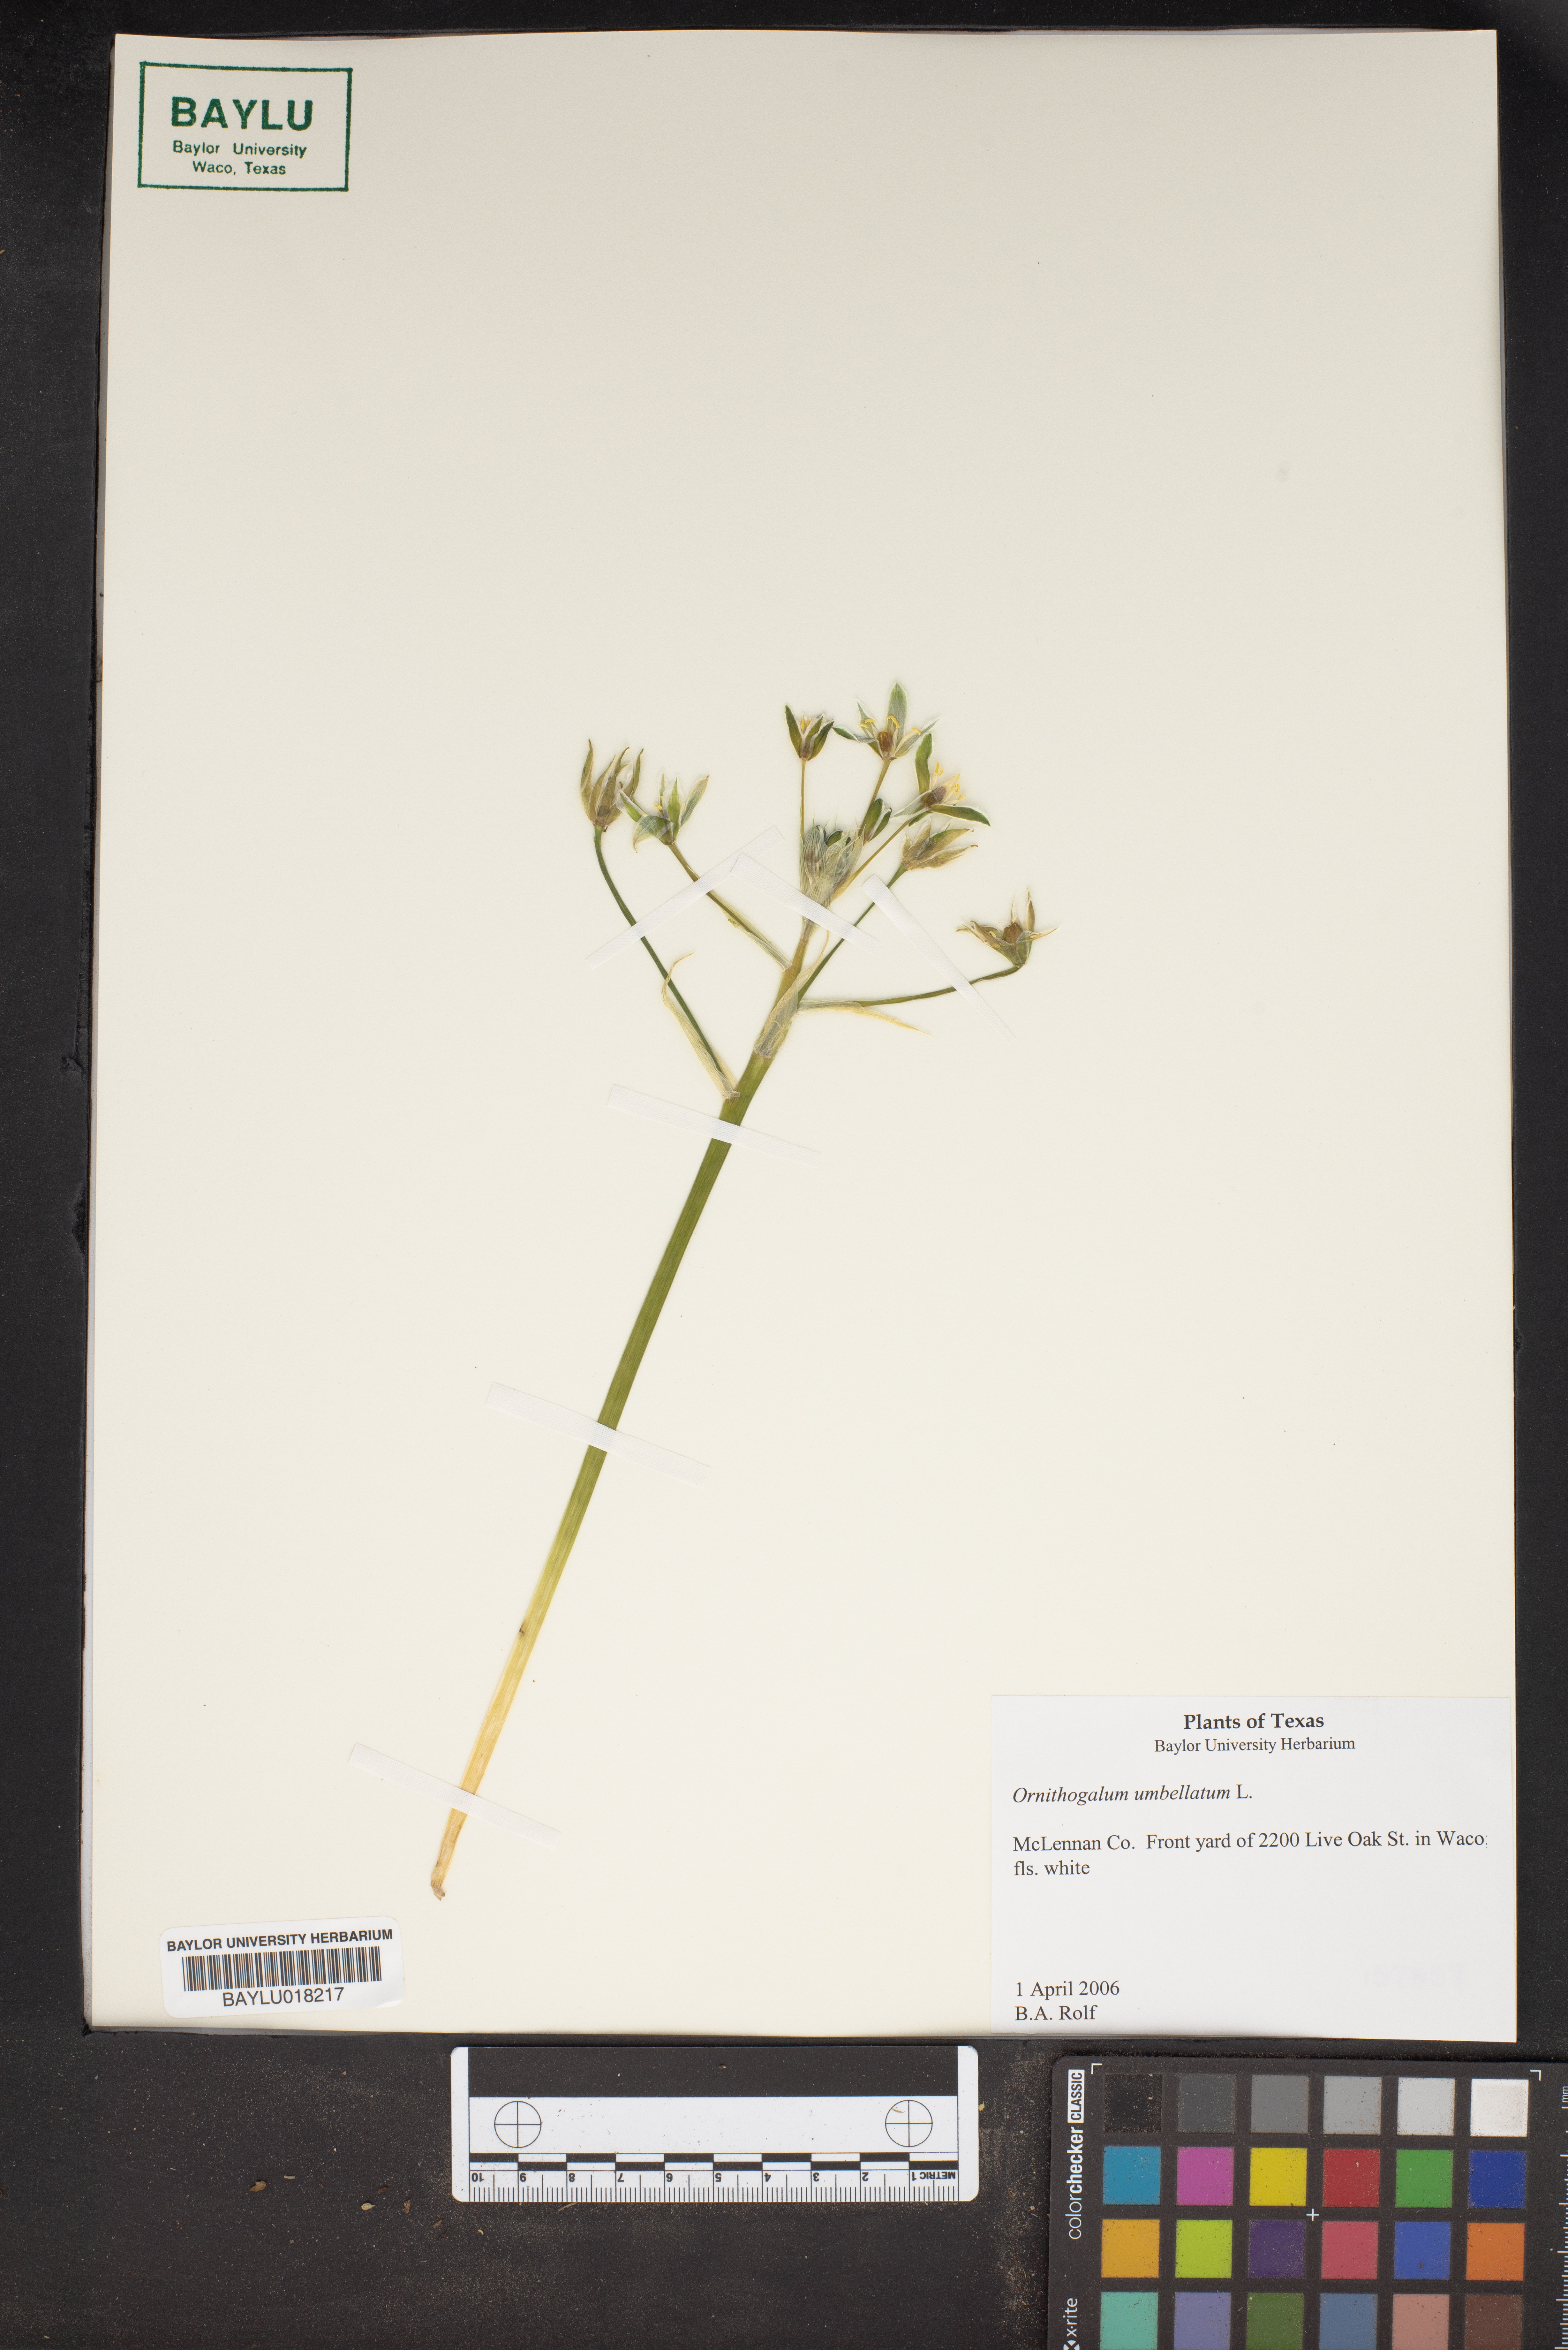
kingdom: Plantae
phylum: Tracheophyta
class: Liliopsida
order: Asparagales
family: Asparagaceae
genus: Ornithogalum
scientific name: Ornithogalum umbellatum
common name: Garden star-of-bethlehem
